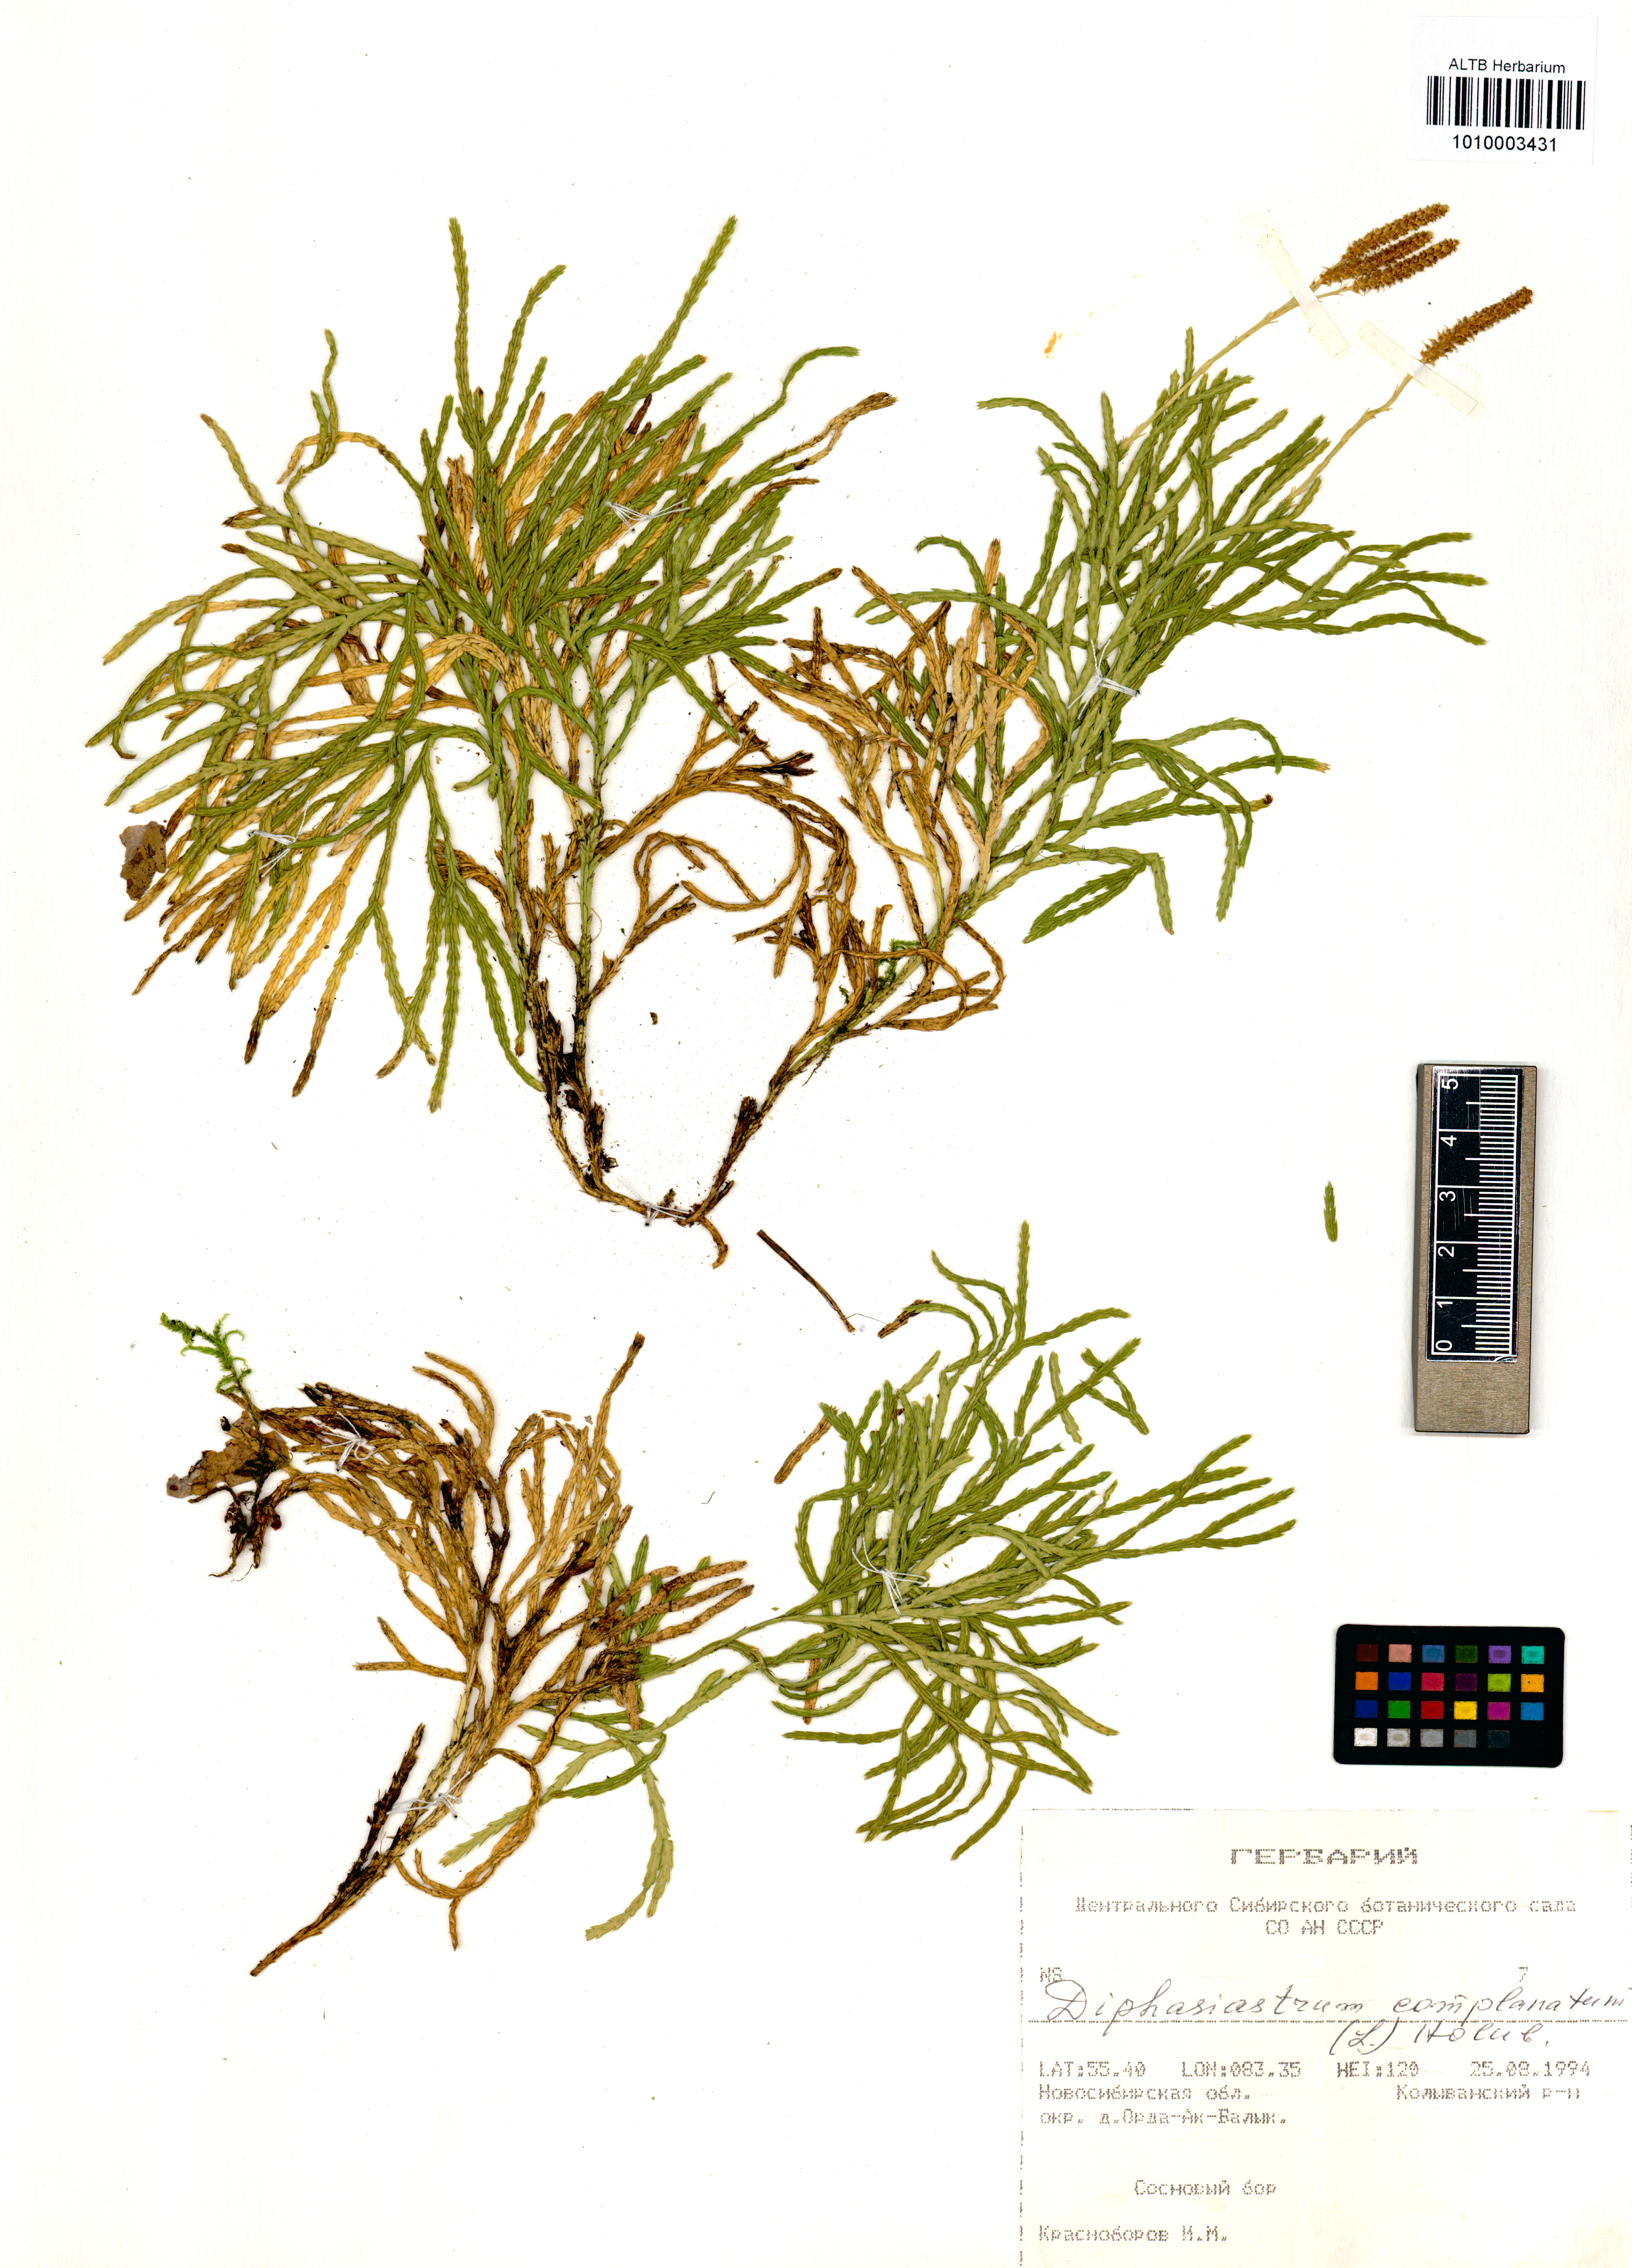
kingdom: Plantae
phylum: Tracheophyta
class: Lycopodiopsida
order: Lycopodiales
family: Lycopodiaceae
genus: Diphasiastrum
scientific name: Diphasiastrum complanatum
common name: Northern running-pine
